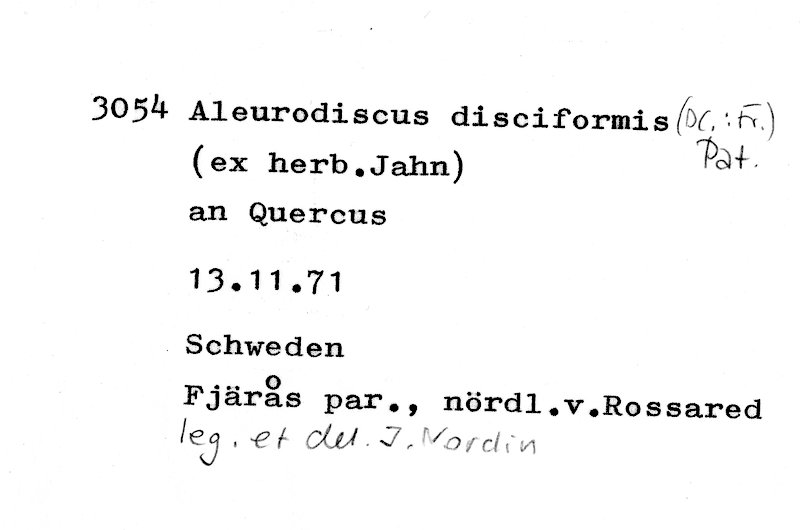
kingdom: Plantae
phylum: Tracheophyta
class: Magnoliopsida
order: Fagales
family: Fagaceae
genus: Quercus
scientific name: Quercus
